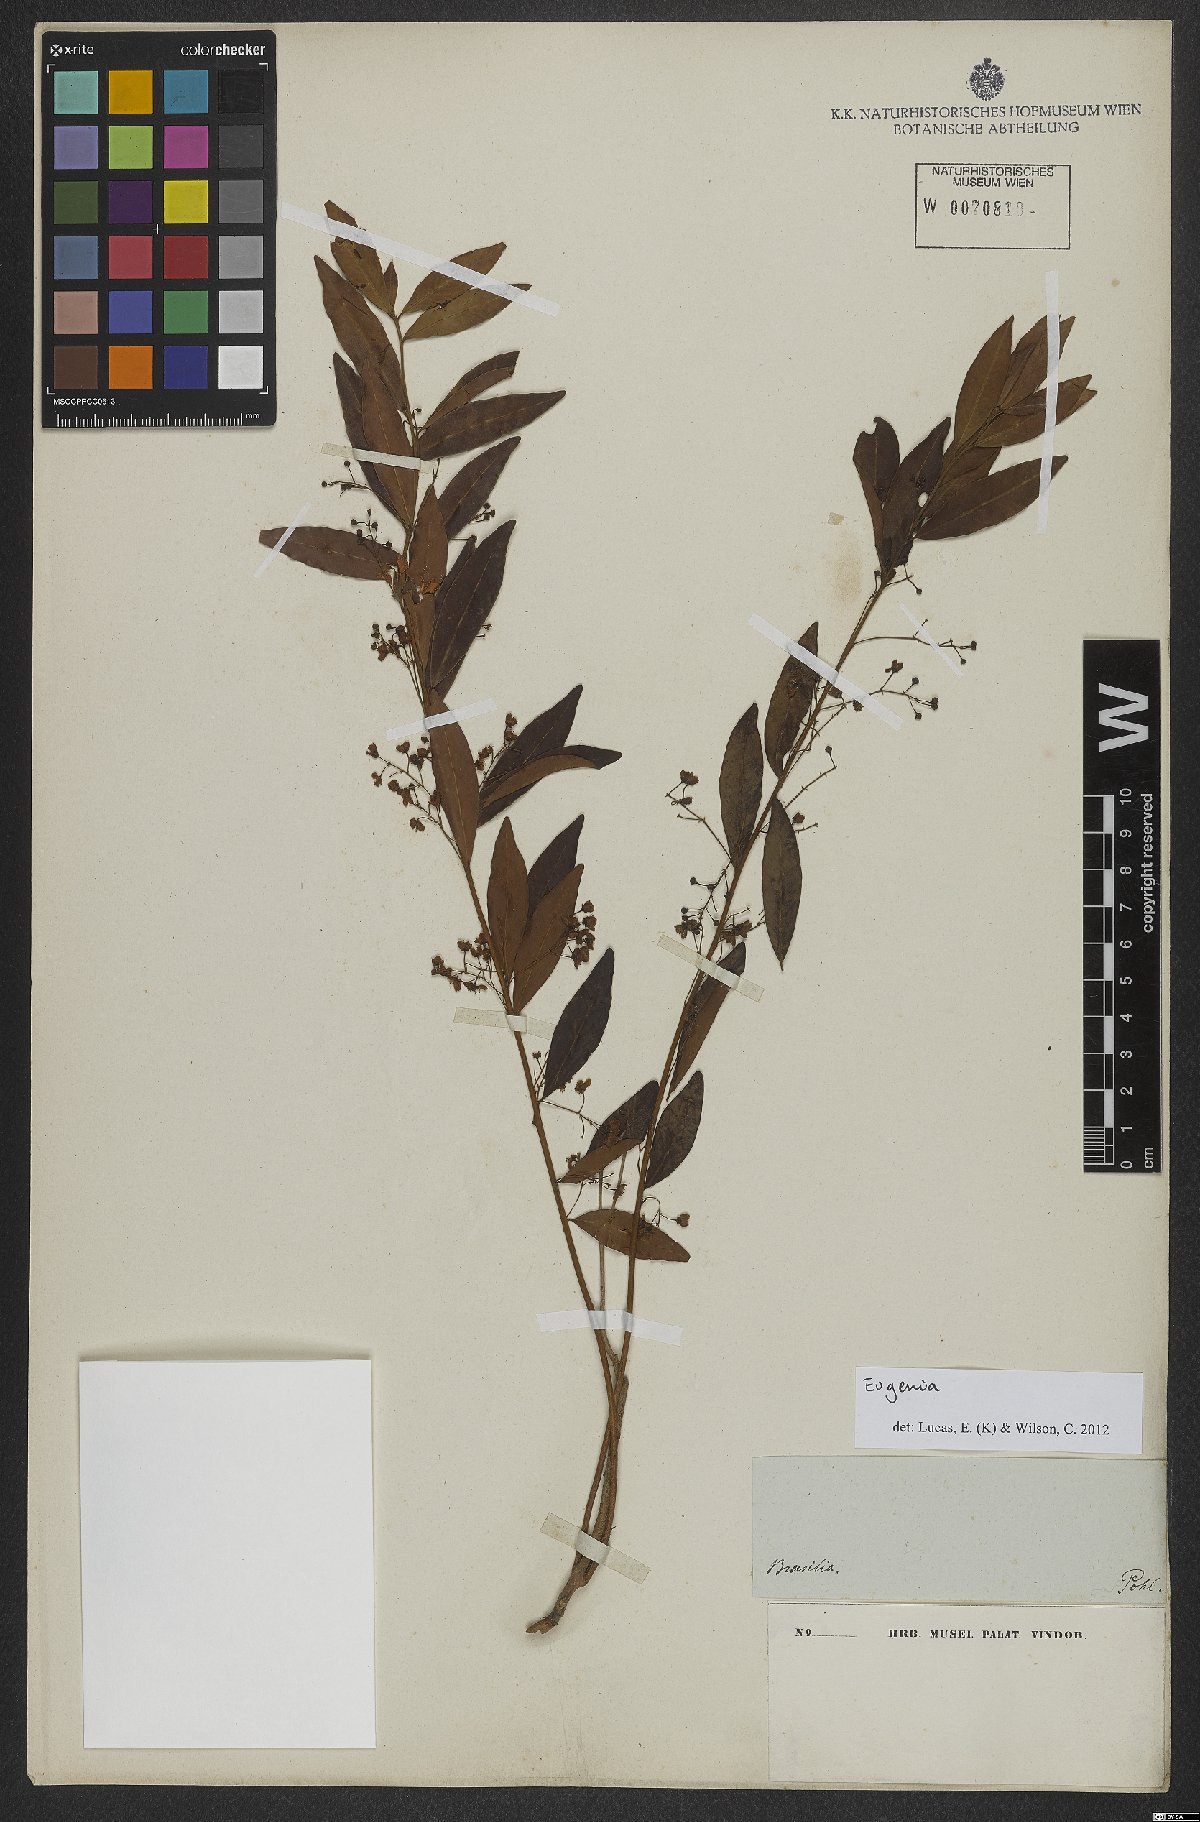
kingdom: Plantae
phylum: Tracheophyta
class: Magnoliopsida
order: Myrtales
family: Myrtaceae
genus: Eugenia
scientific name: Eugenia
